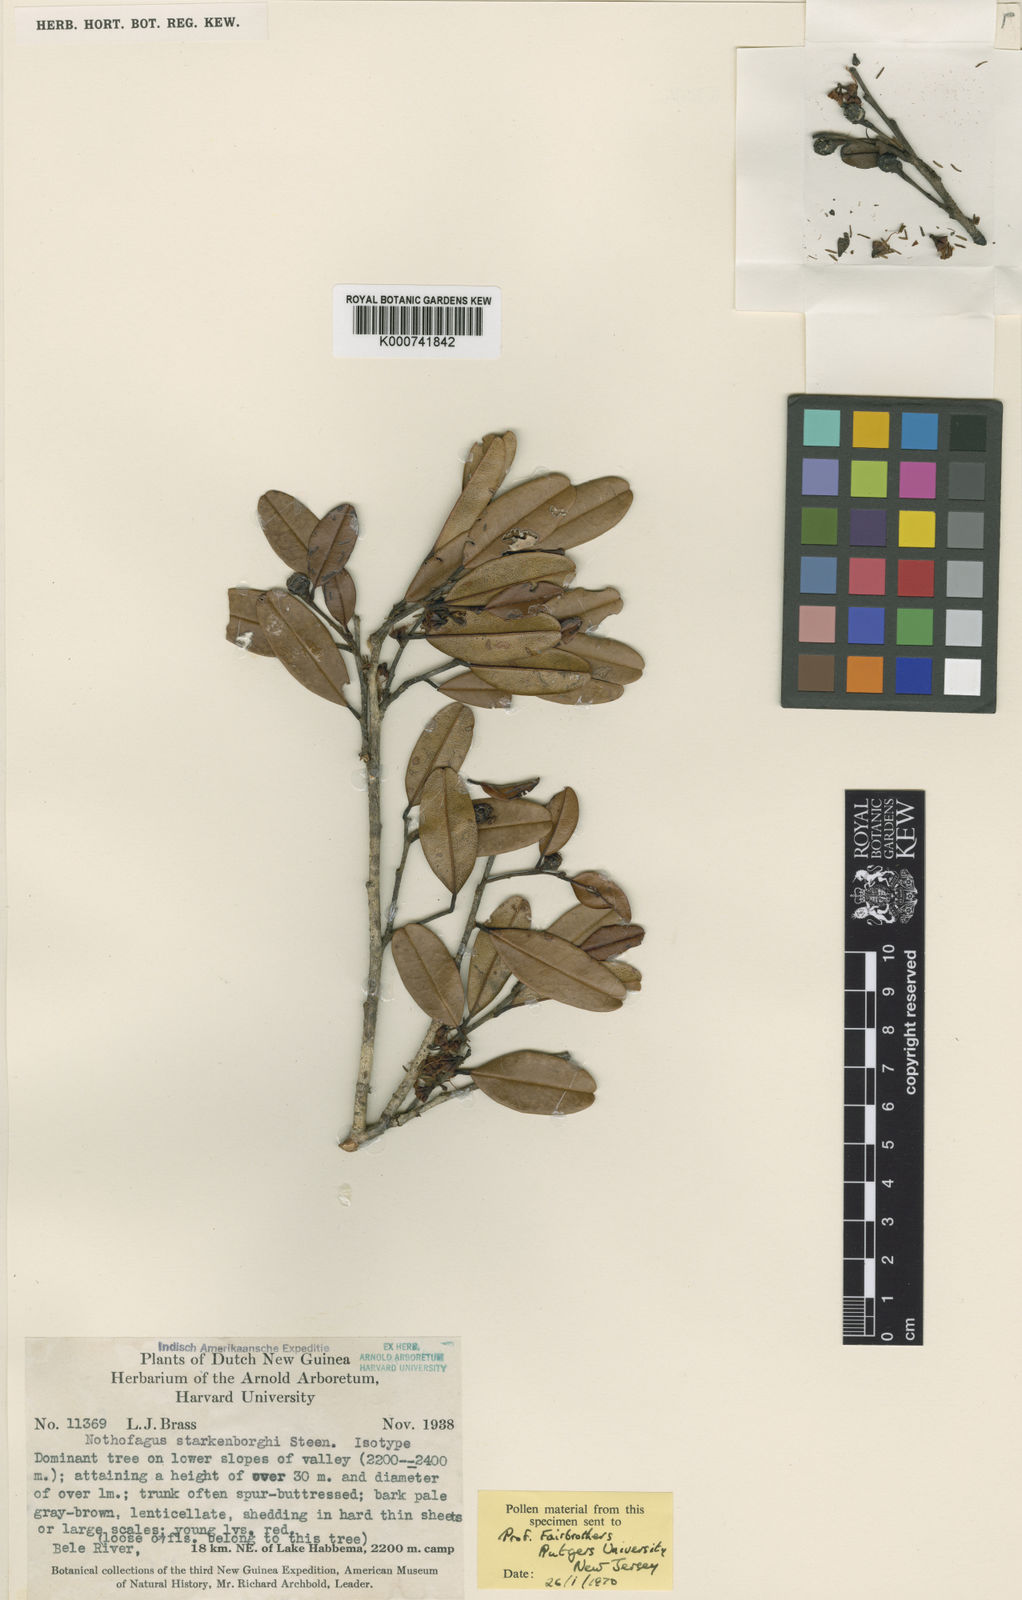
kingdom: Plantae
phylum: Tracheophyta
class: Magnoliopsida
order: Fagales
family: Nothofagaceae
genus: Nothofagus
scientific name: Nothofagus
